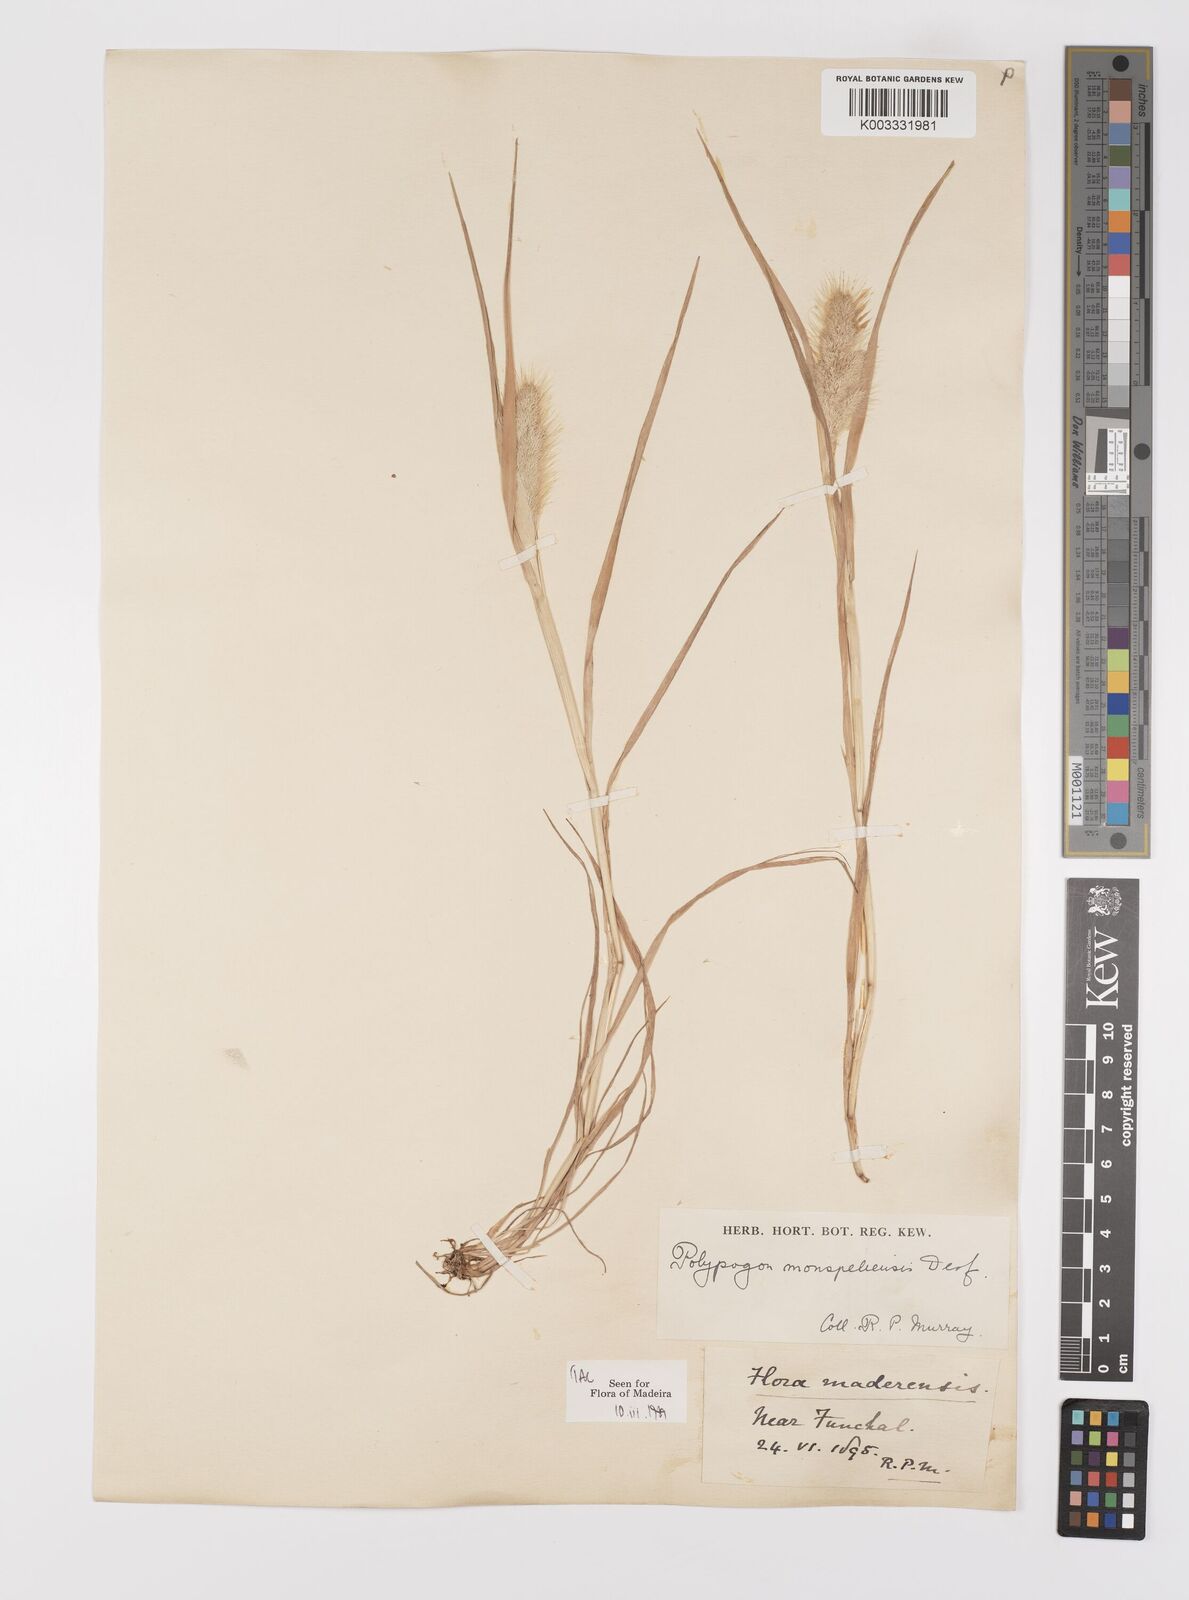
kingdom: Plantae
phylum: Tracheophyta
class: Liliopsida
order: Poales
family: Poaceae
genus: Polypogon
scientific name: Polypogon monspeliensis
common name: Annual rabbitsfoot grass
